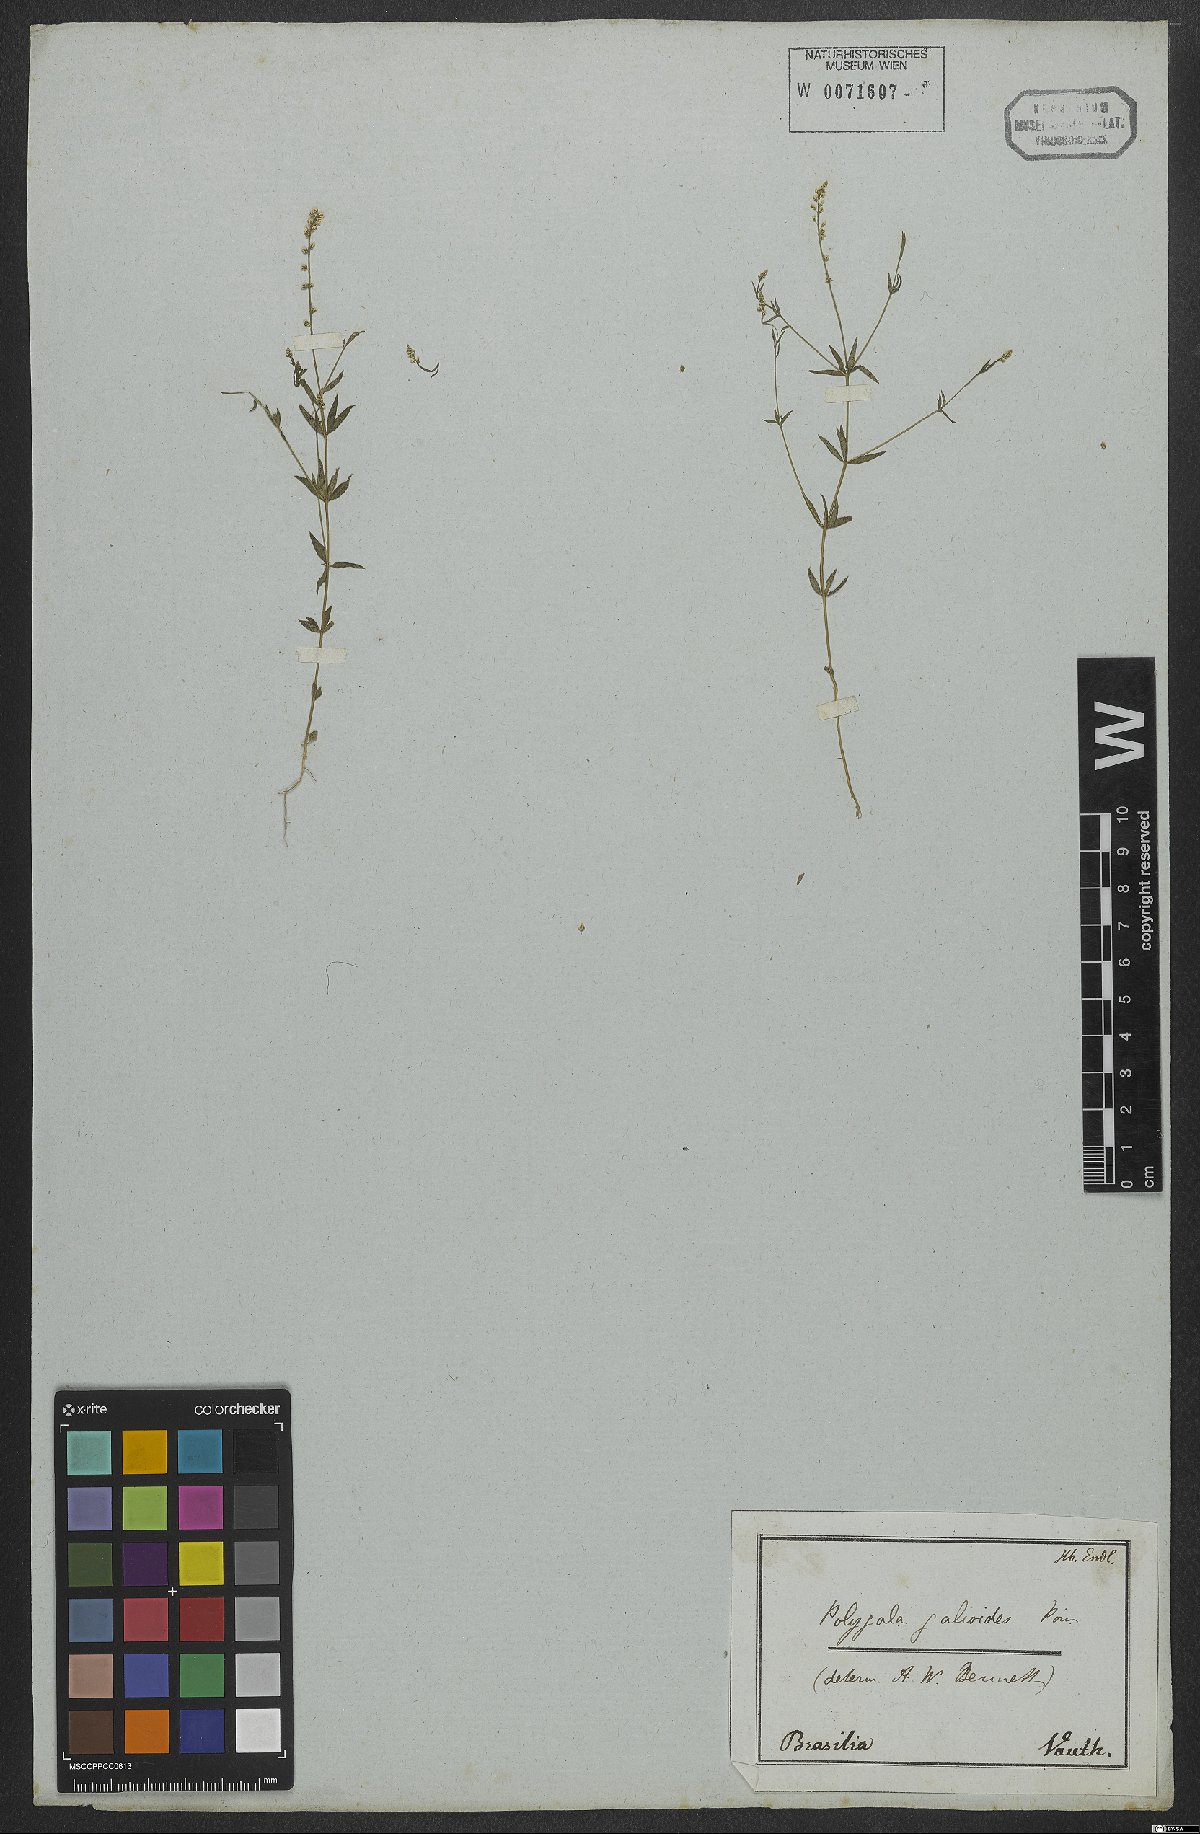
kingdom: Plantae
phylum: Tracheophyta
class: Magnoliopsida
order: Fabales
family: Polygalaceae
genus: Polygala
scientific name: Polygala galioides
